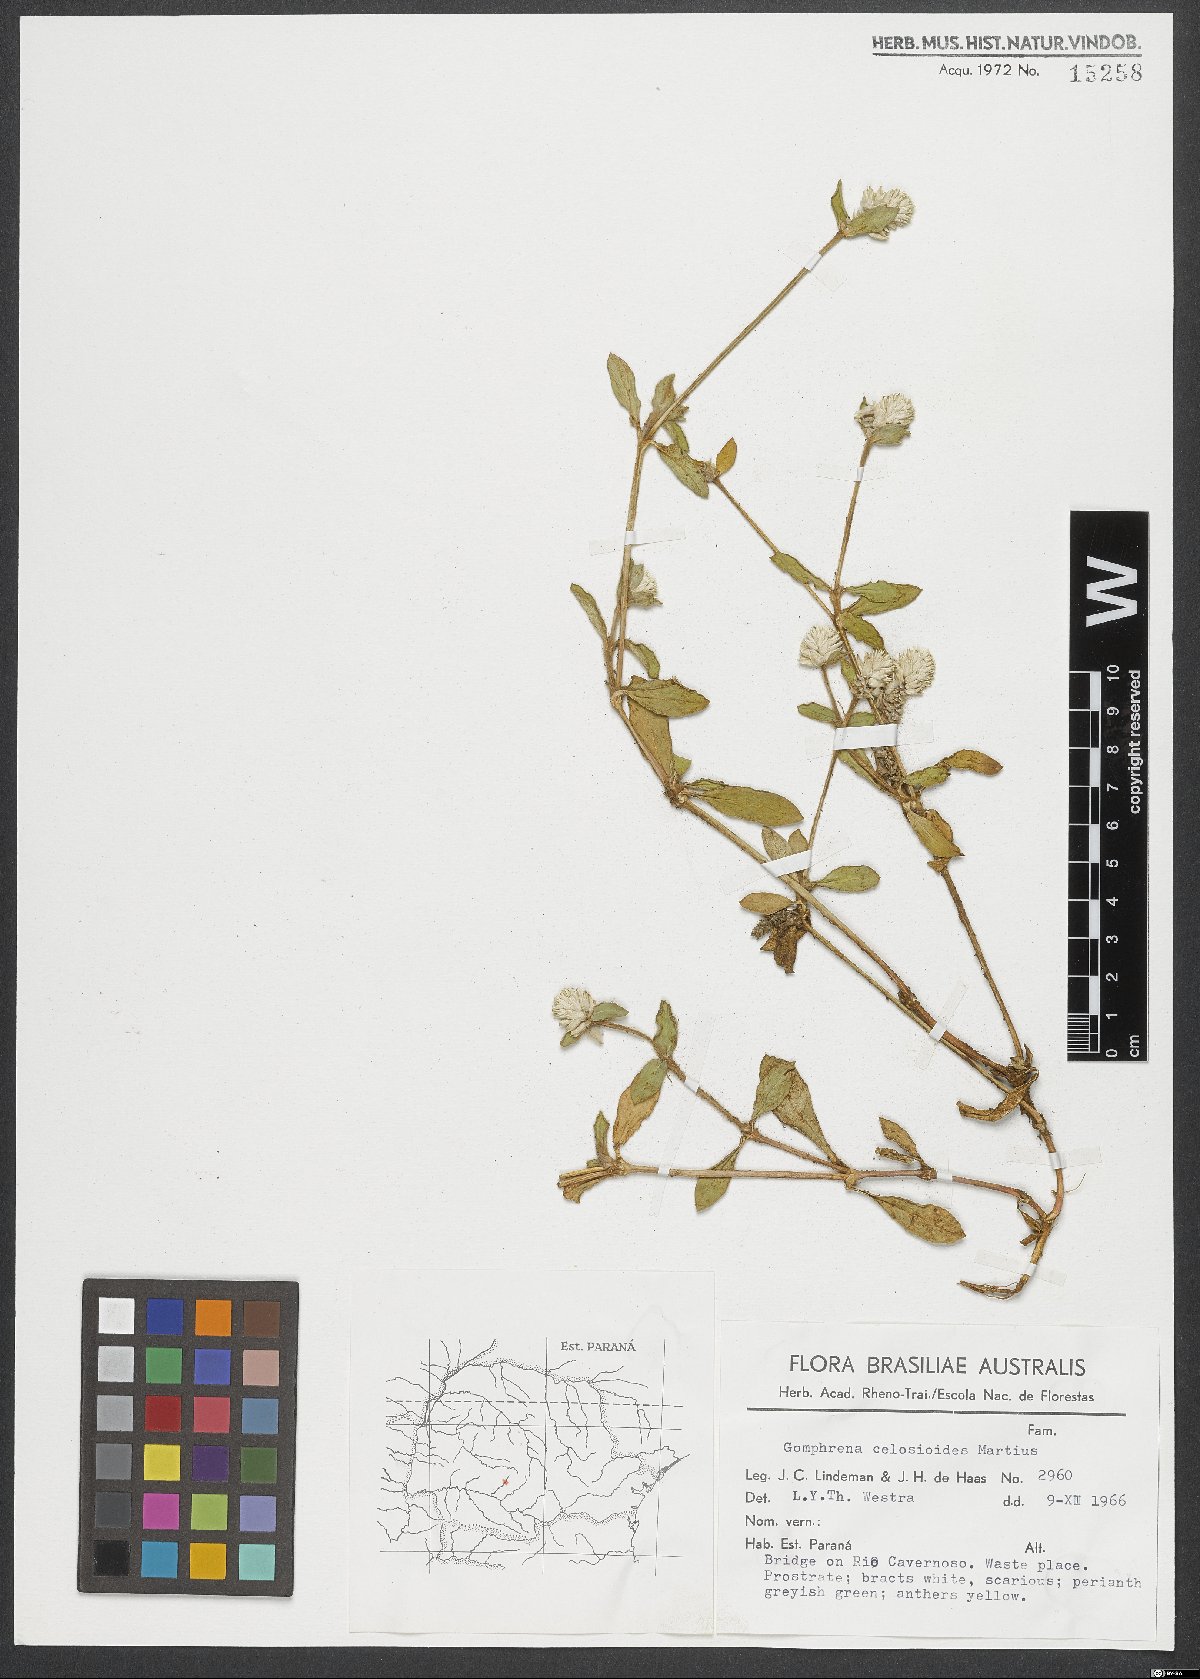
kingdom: Plantae
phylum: Tracheophyta
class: Magnoliopsida
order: Caryophyllales
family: Amaranthaceae
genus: Gomphrena
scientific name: Gomphrena celosioides
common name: Gomphrena-weed
